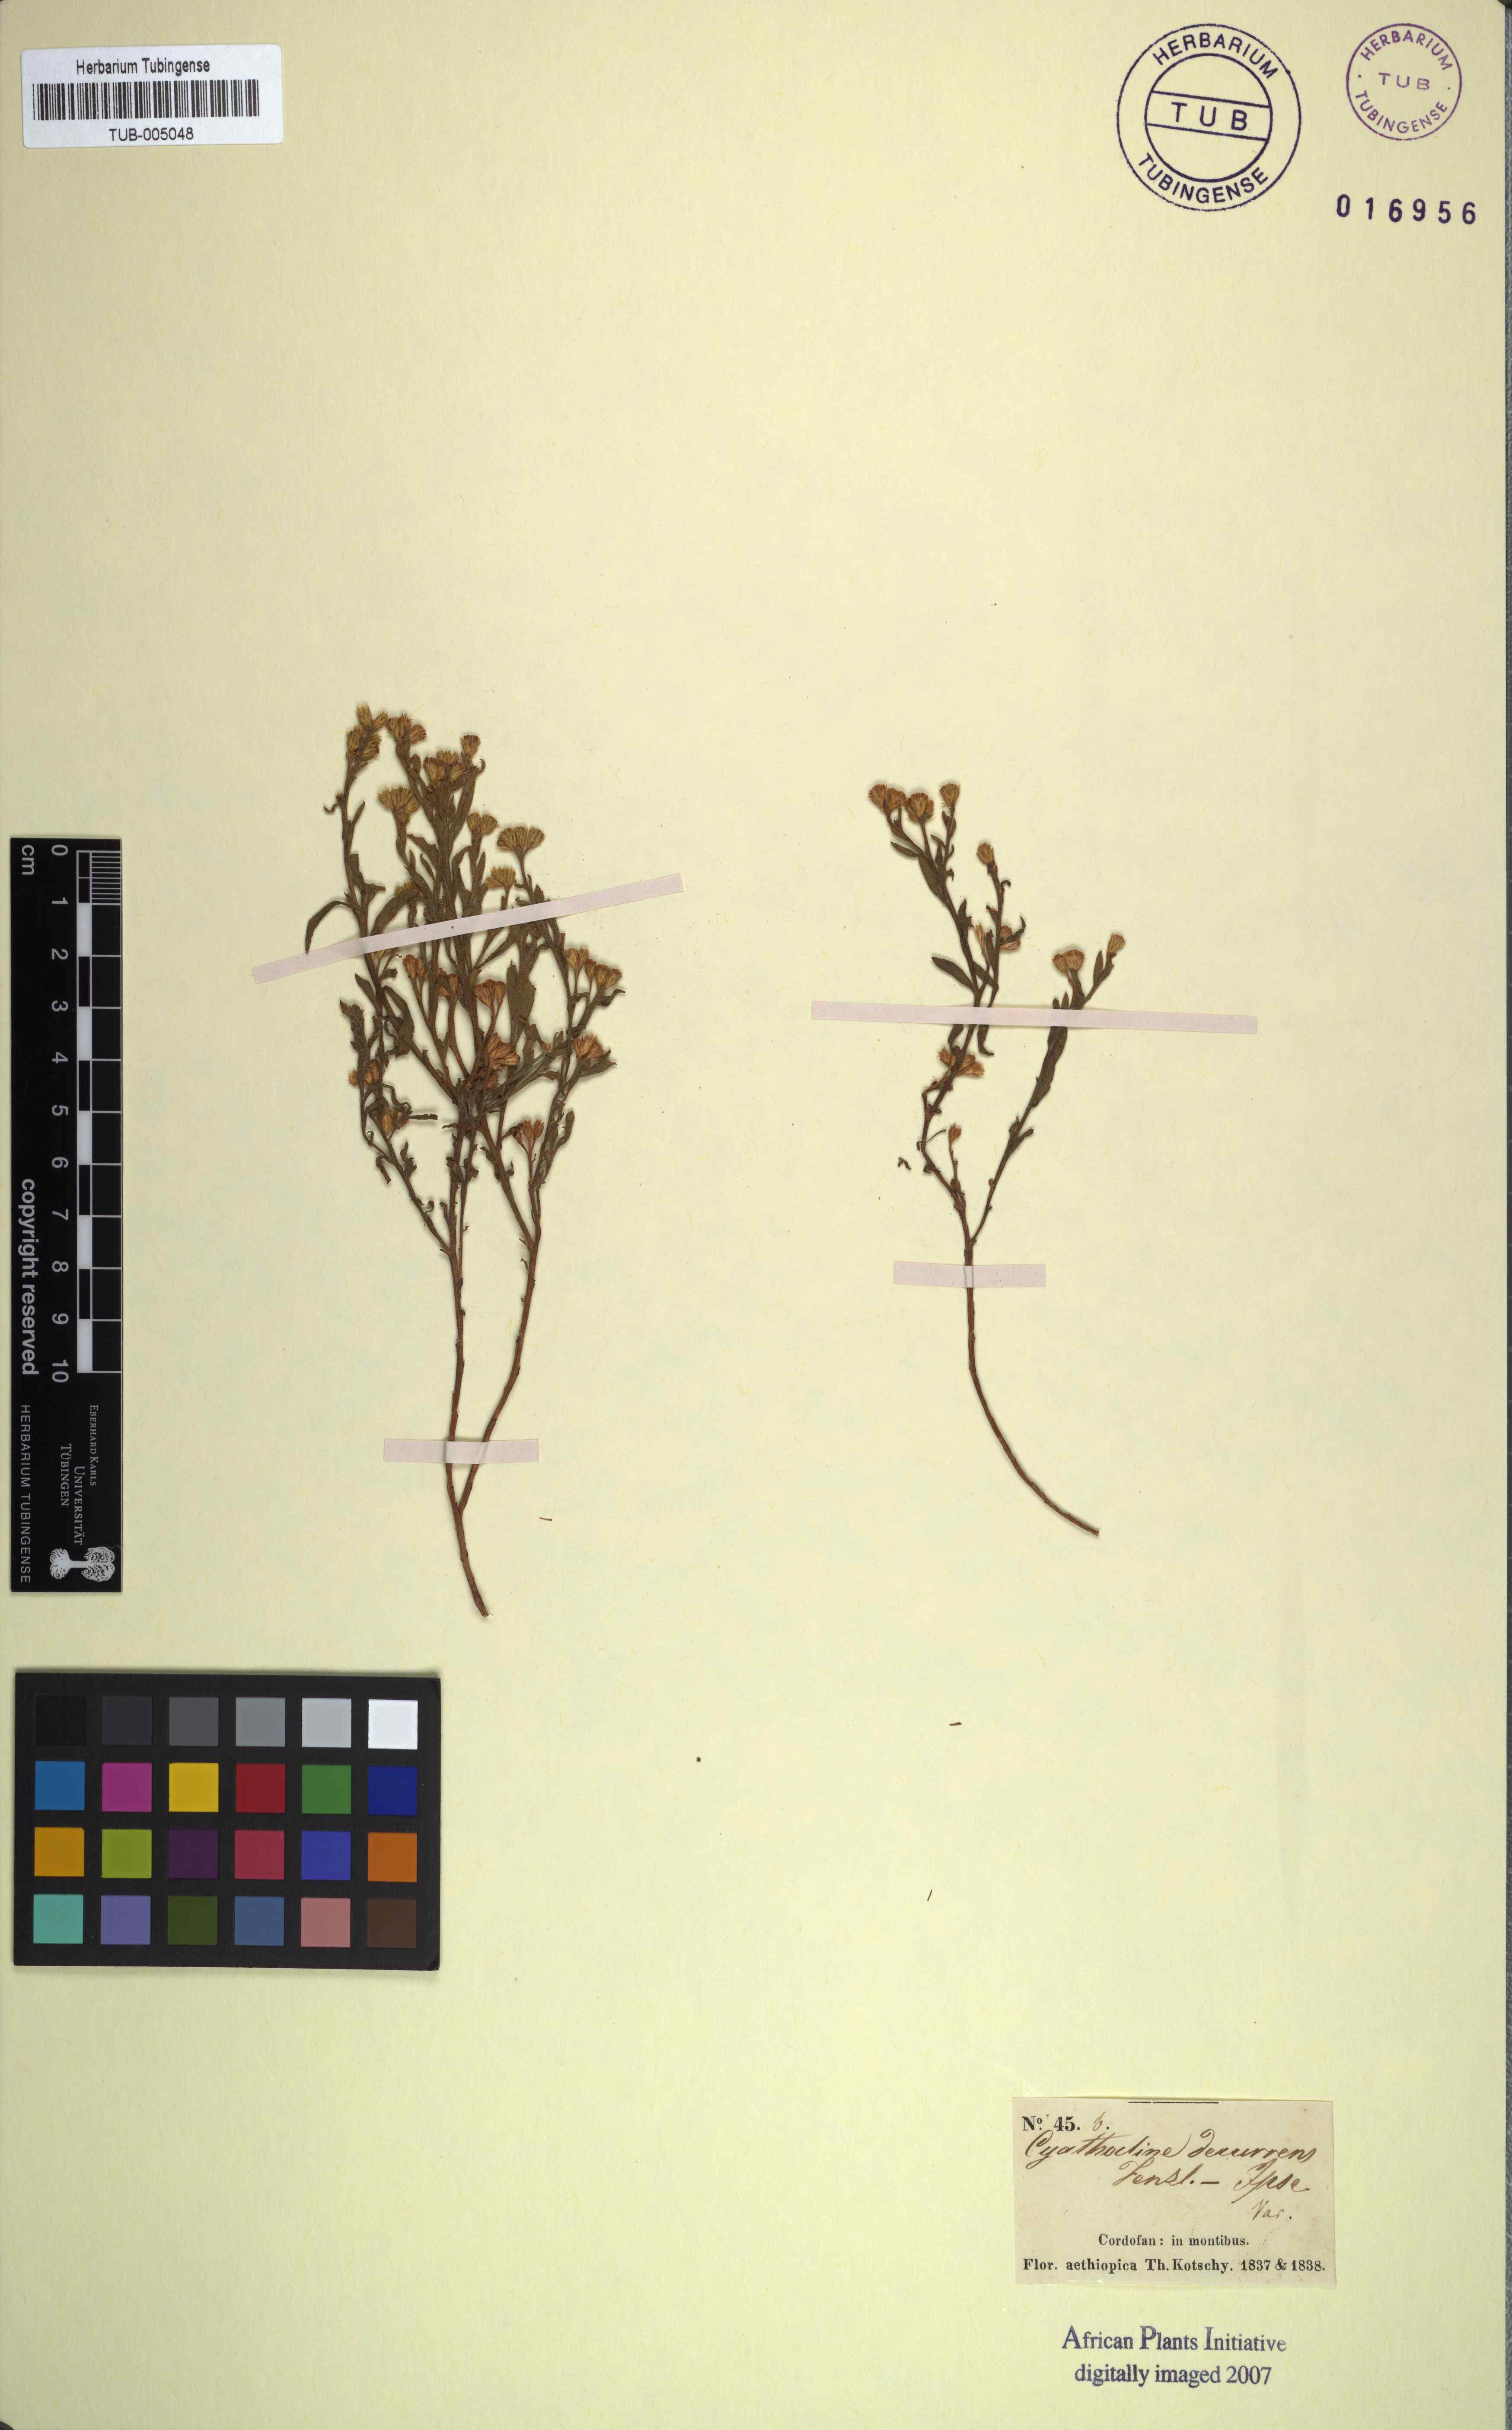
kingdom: Plantae
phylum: Tracheophyta
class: Magnoliopsida
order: Asterales
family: Asteraceae
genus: Cyathocline
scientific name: Cyathocline
